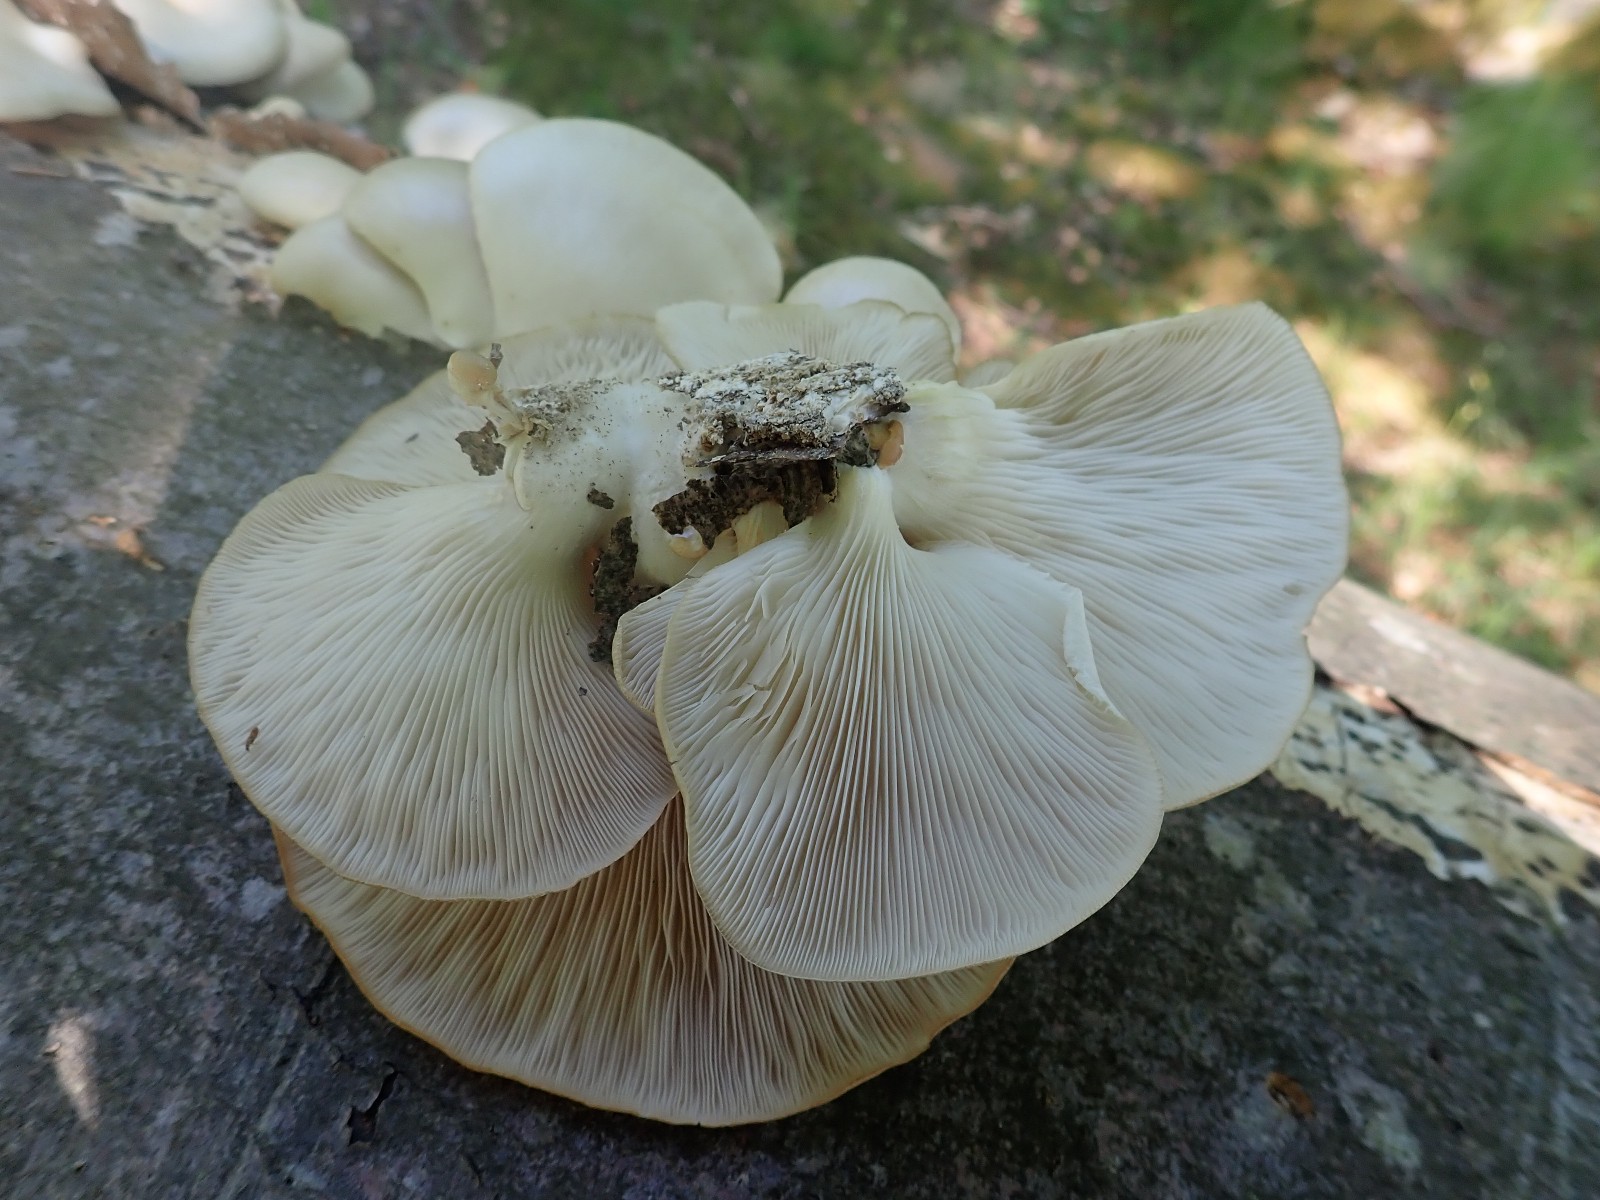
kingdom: Fungi
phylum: Basidiomycota
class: Agaricomycetes
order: Agaricales
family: Pleurotaceae
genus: Pleurotus
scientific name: Pleurotus pulmonarius
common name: sommer-østershat
